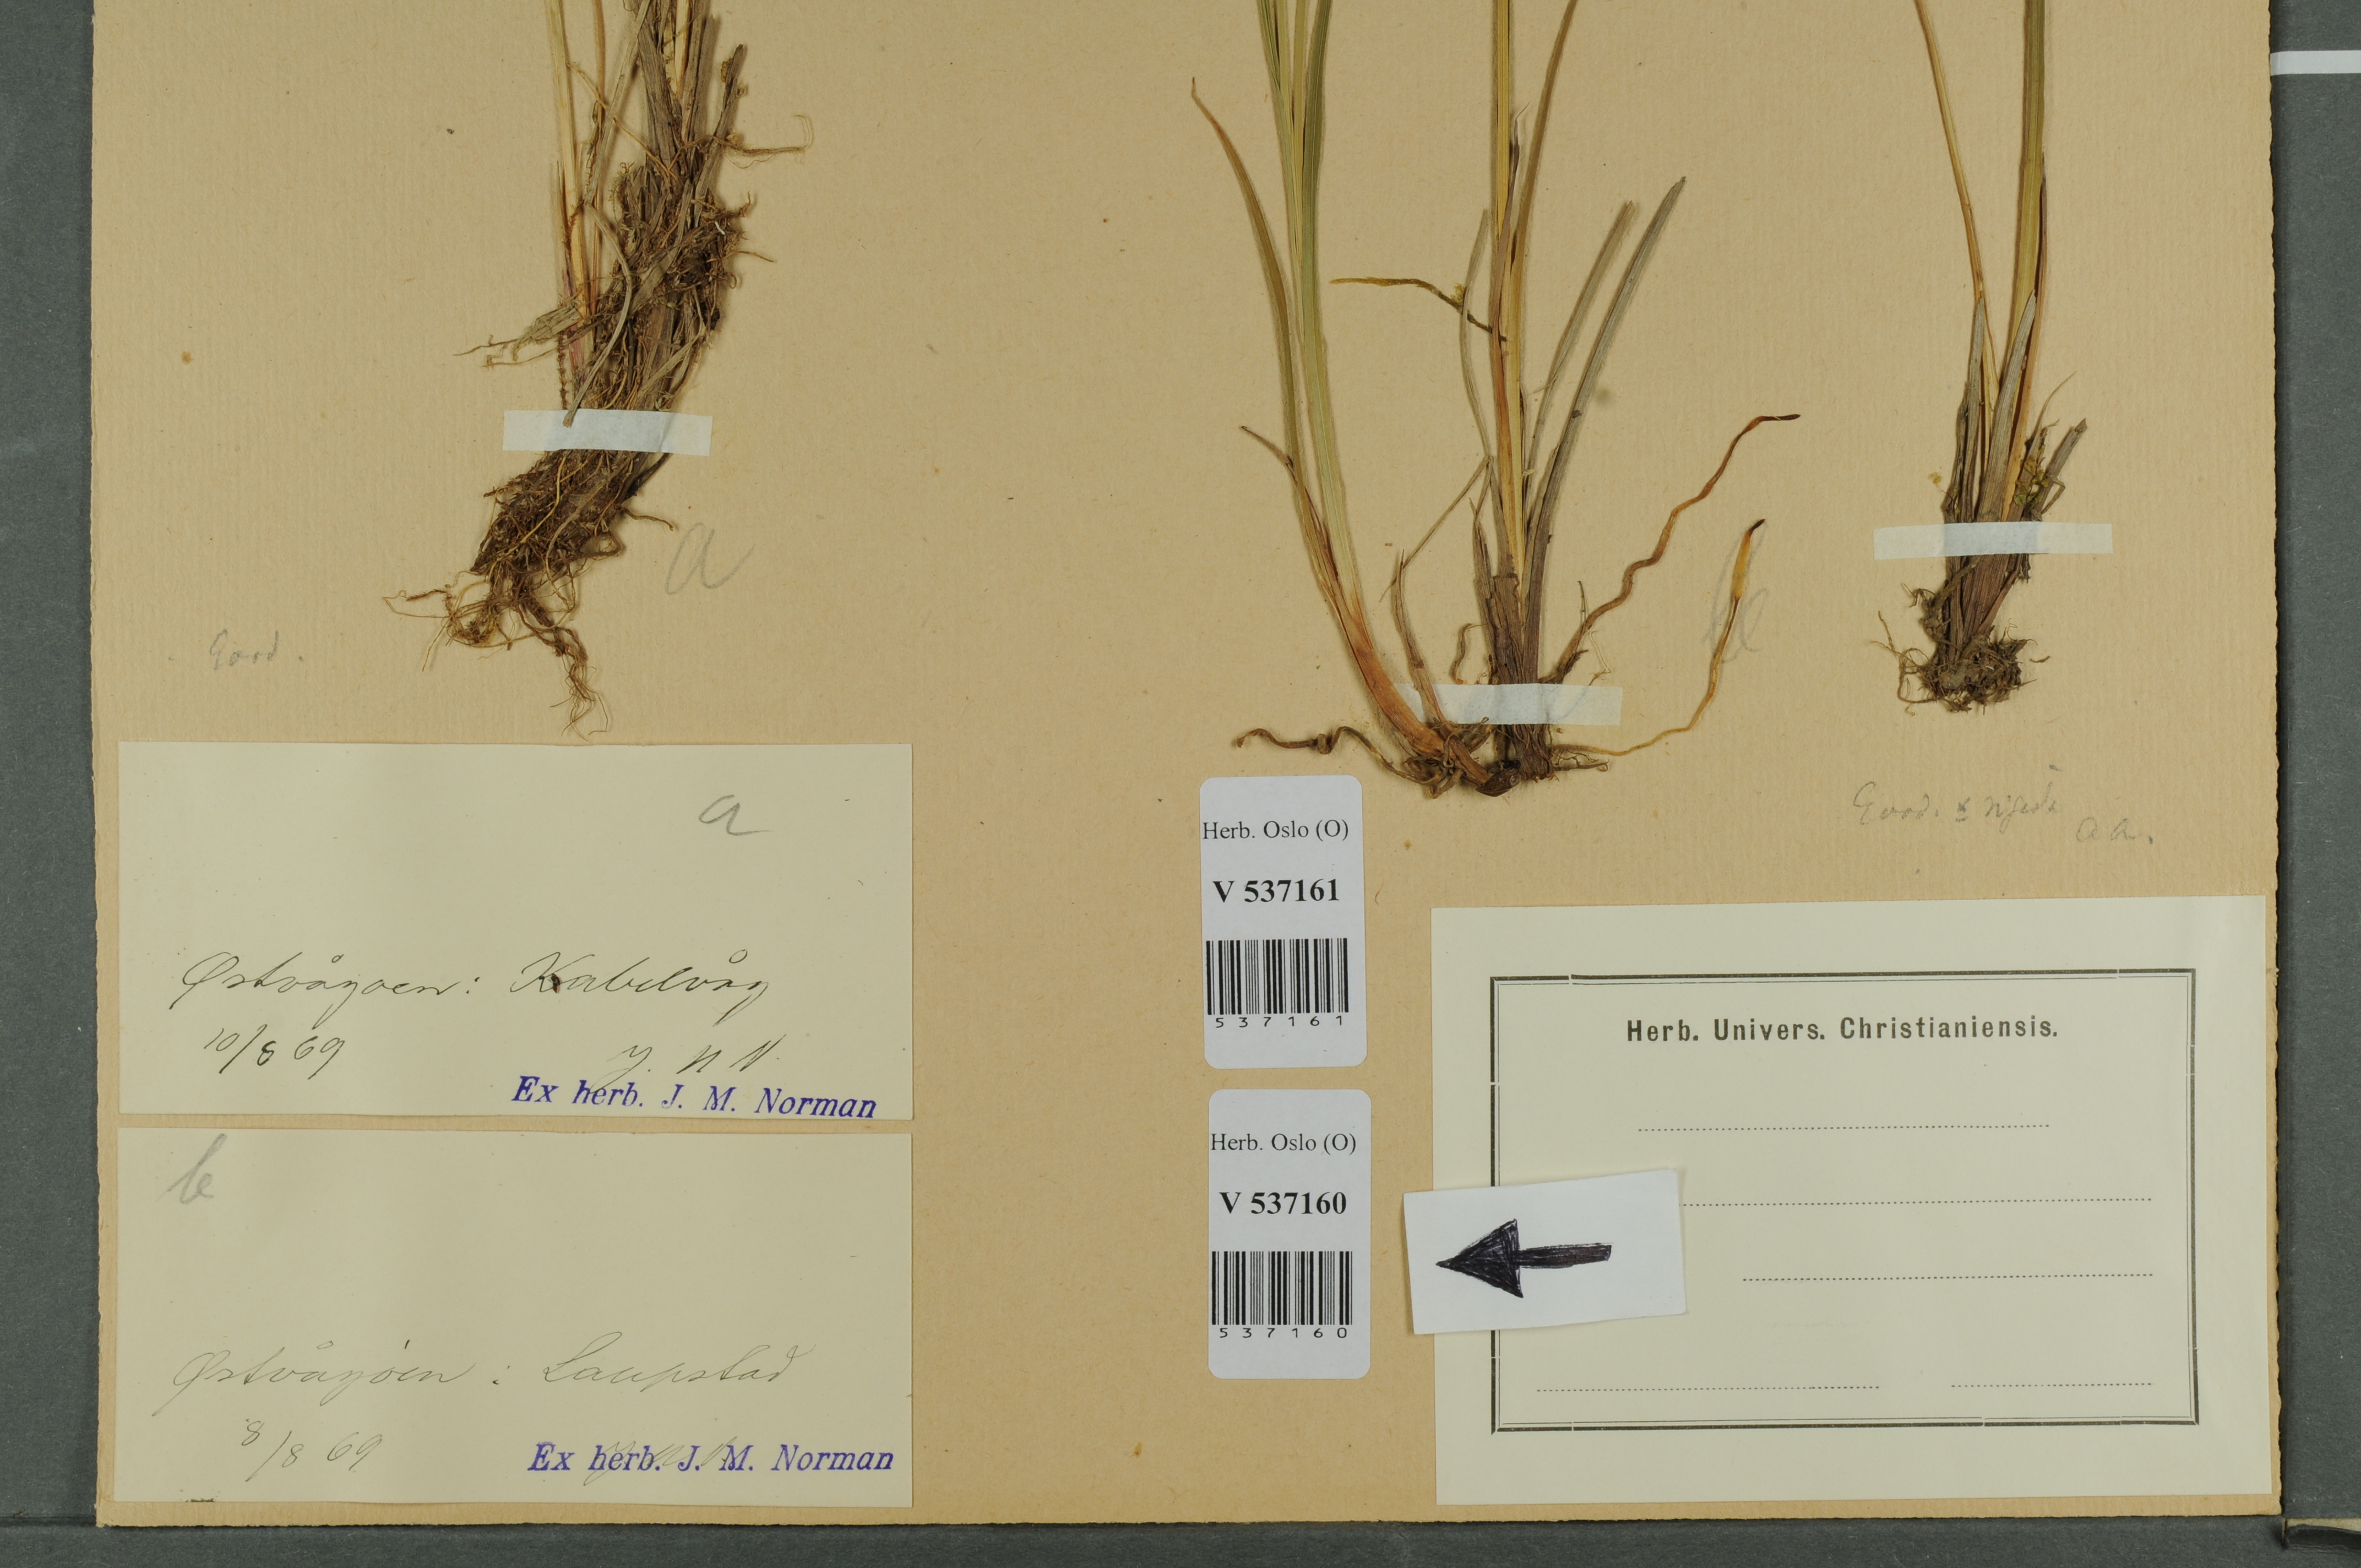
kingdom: Plantae
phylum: Tracheophyta
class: Liliopsida
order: Poales
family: Cyperaceae
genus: Carex
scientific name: Carex
